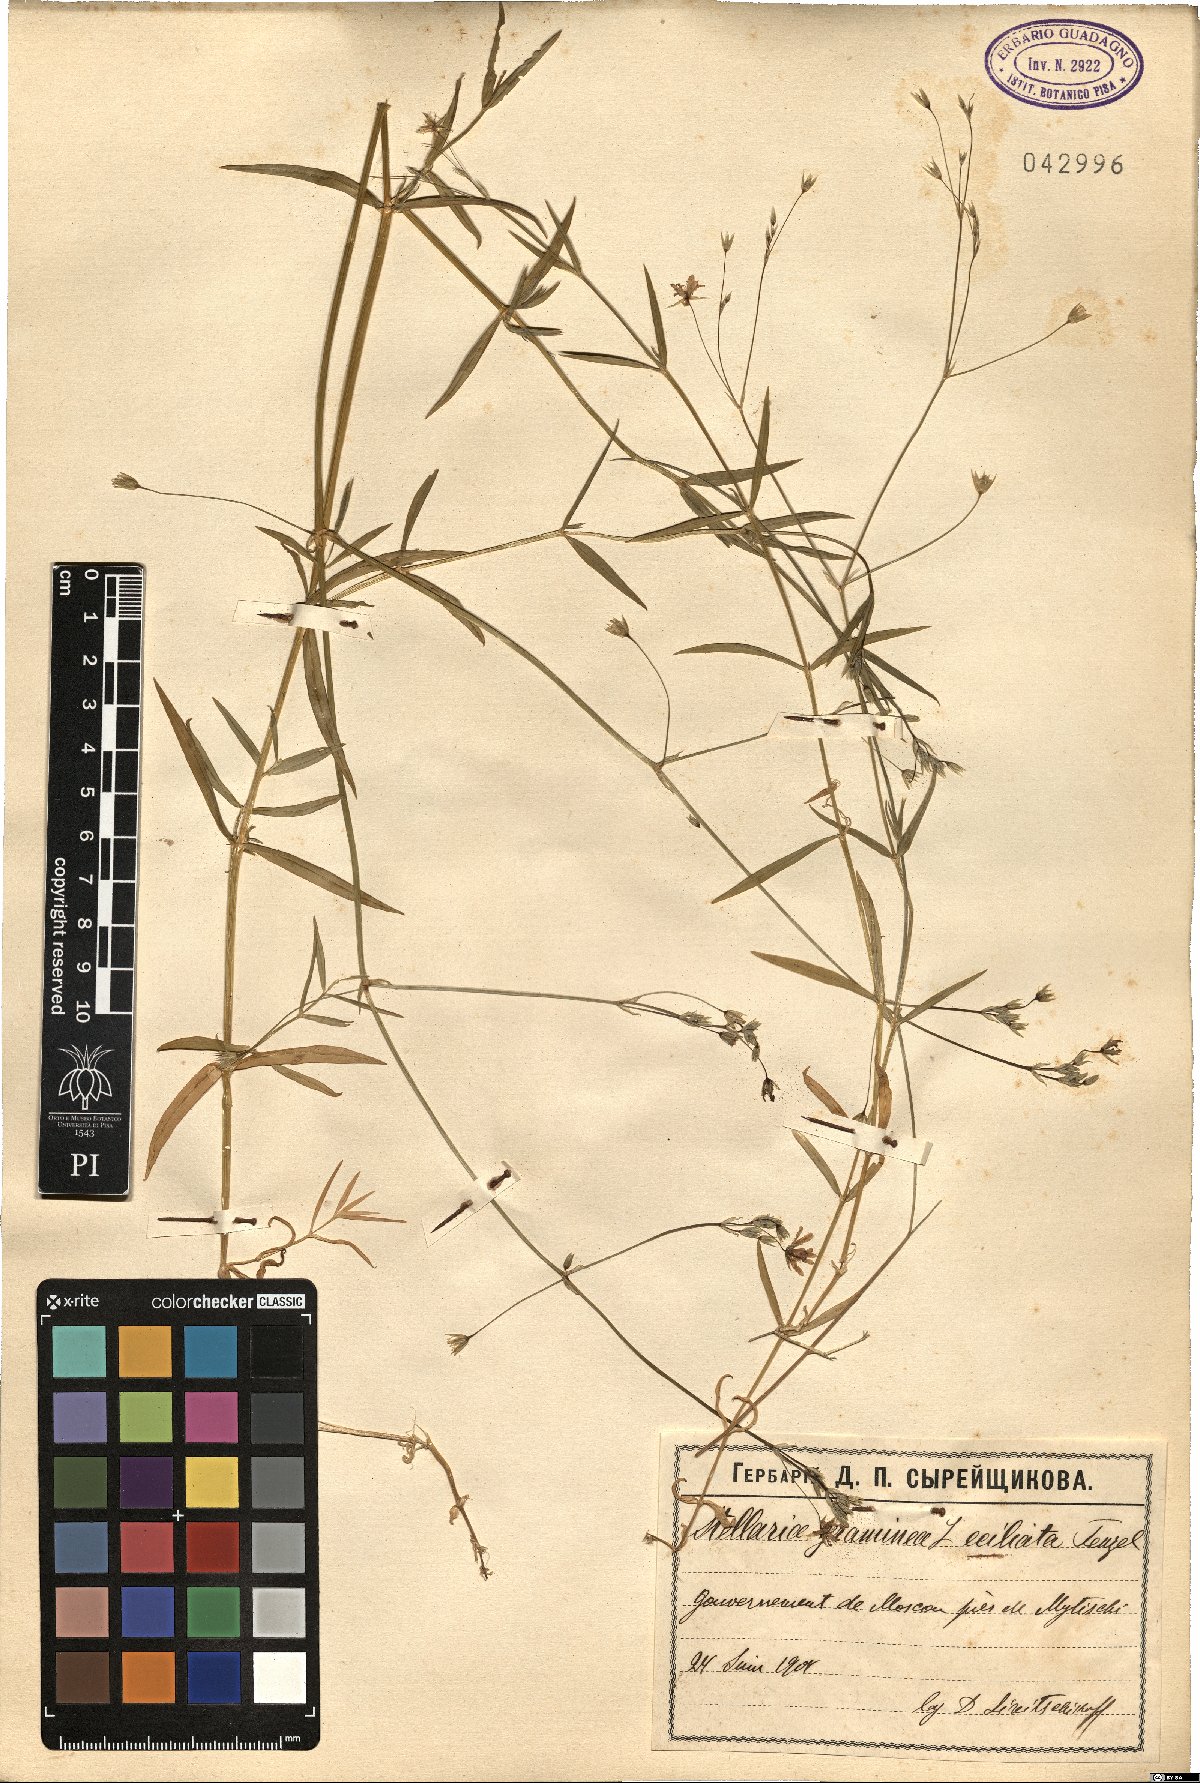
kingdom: Plantae
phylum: Tracheophyta
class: Magnoliopsida
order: Caryophyllales
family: Caryophyllaceae
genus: Stellaria
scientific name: Stellaria graminea
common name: Grass-like starwort
